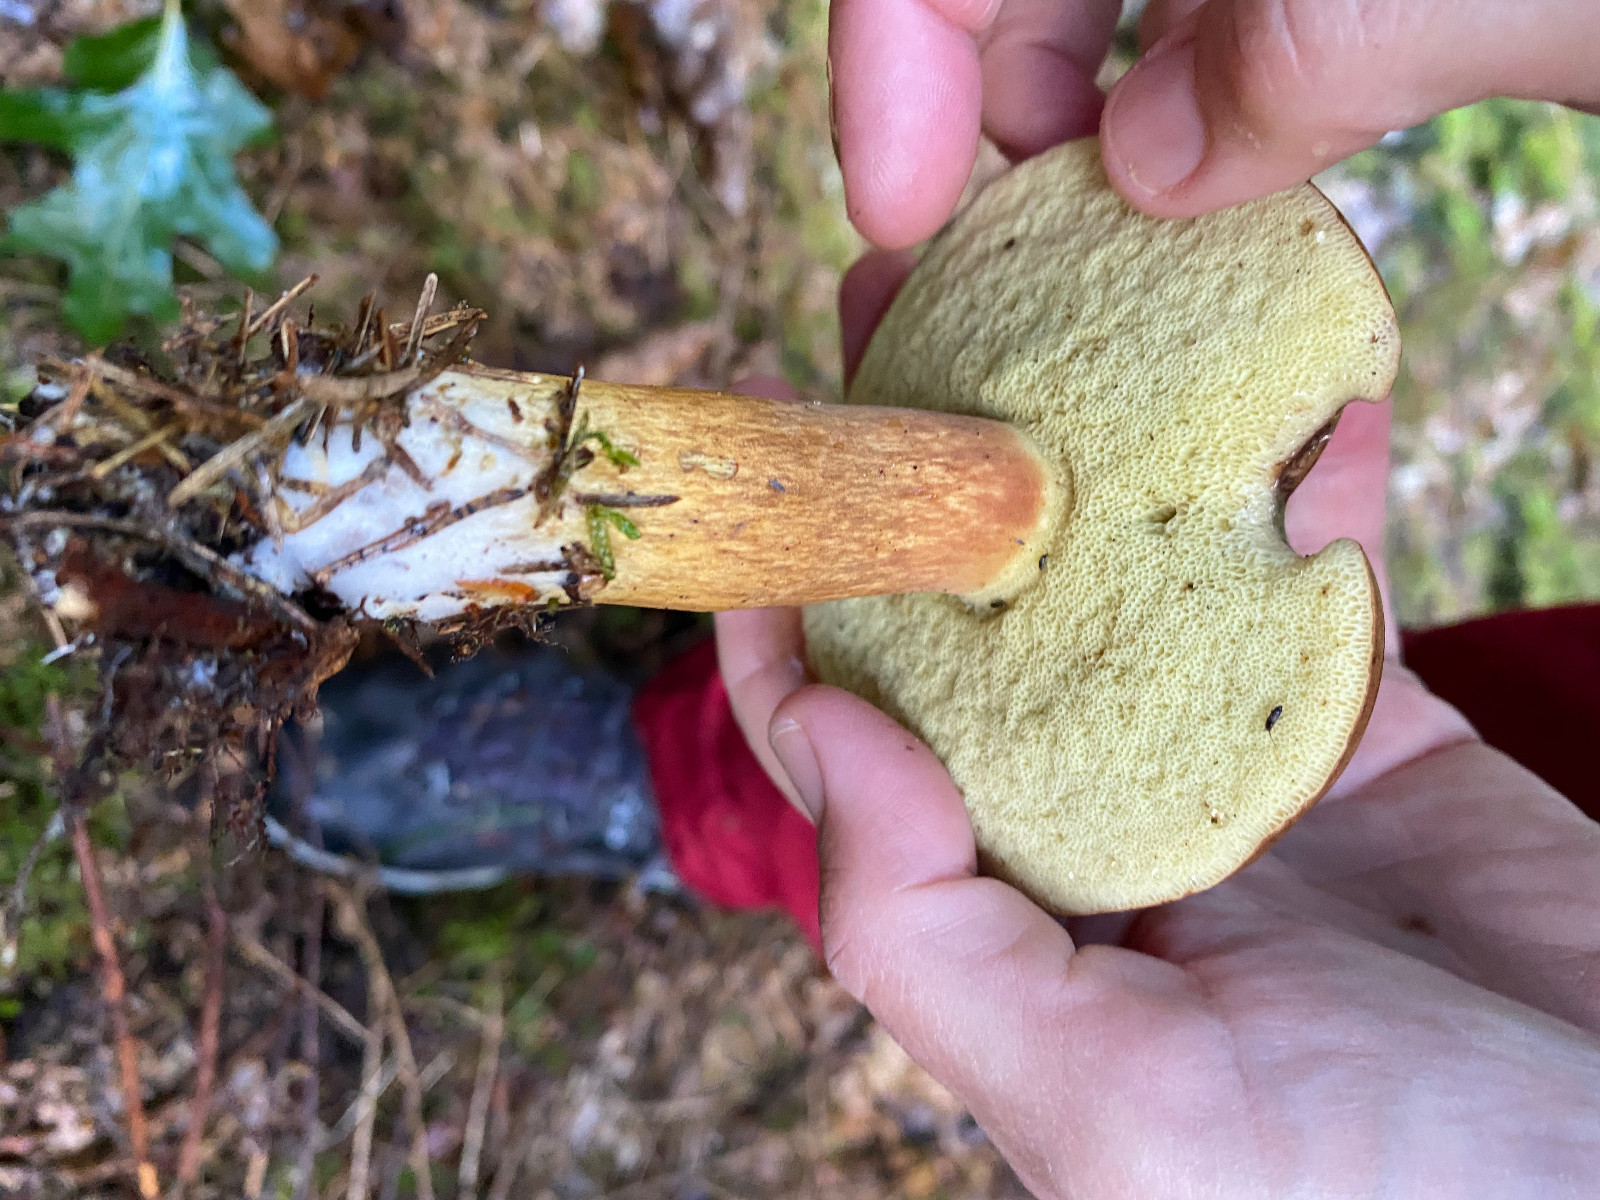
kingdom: Fungi
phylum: Basidiomycota
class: Agaricomycetes
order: Boletales
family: Boletaceae
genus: Imleria
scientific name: Imleria badia
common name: brunstokket rørhat
